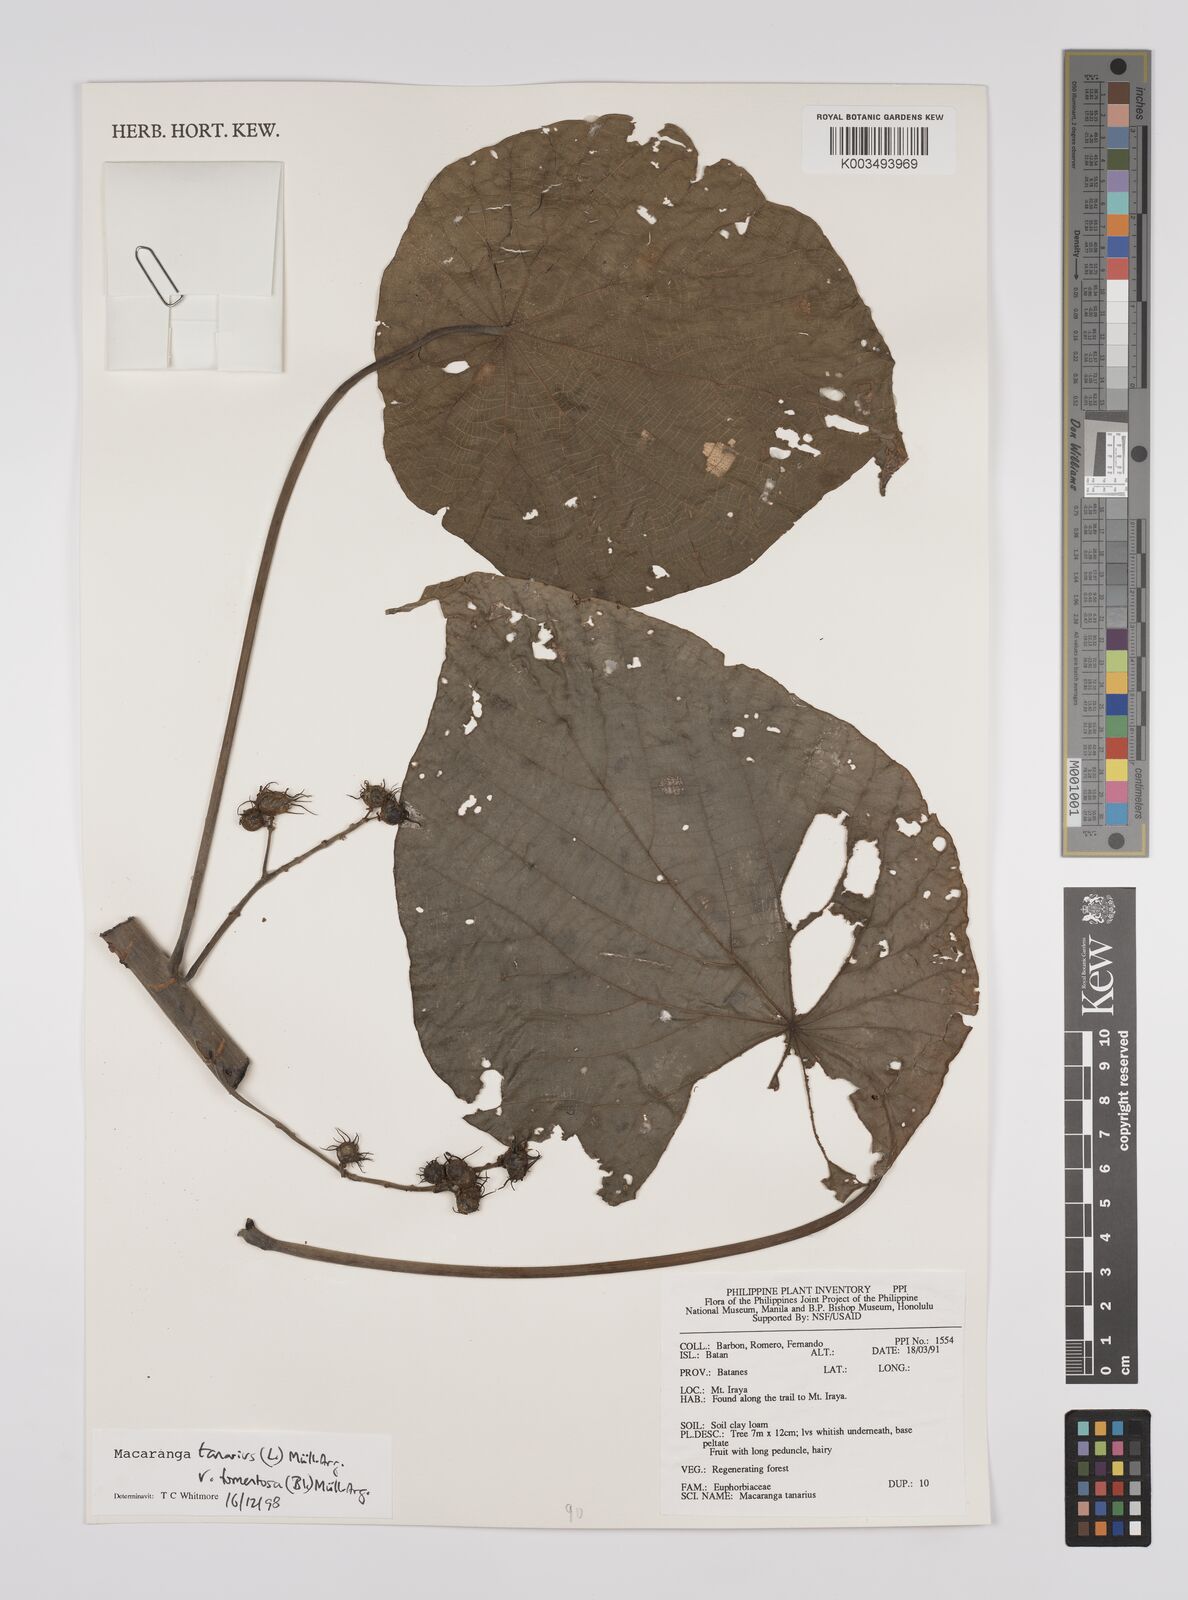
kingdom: Plantae
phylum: Tracheophyta
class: Magnoliopsida
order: Malpighiales
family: Euphorbiaceae
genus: Macaranga
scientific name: Macaranga tanarius
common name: Parasol leaf tree
